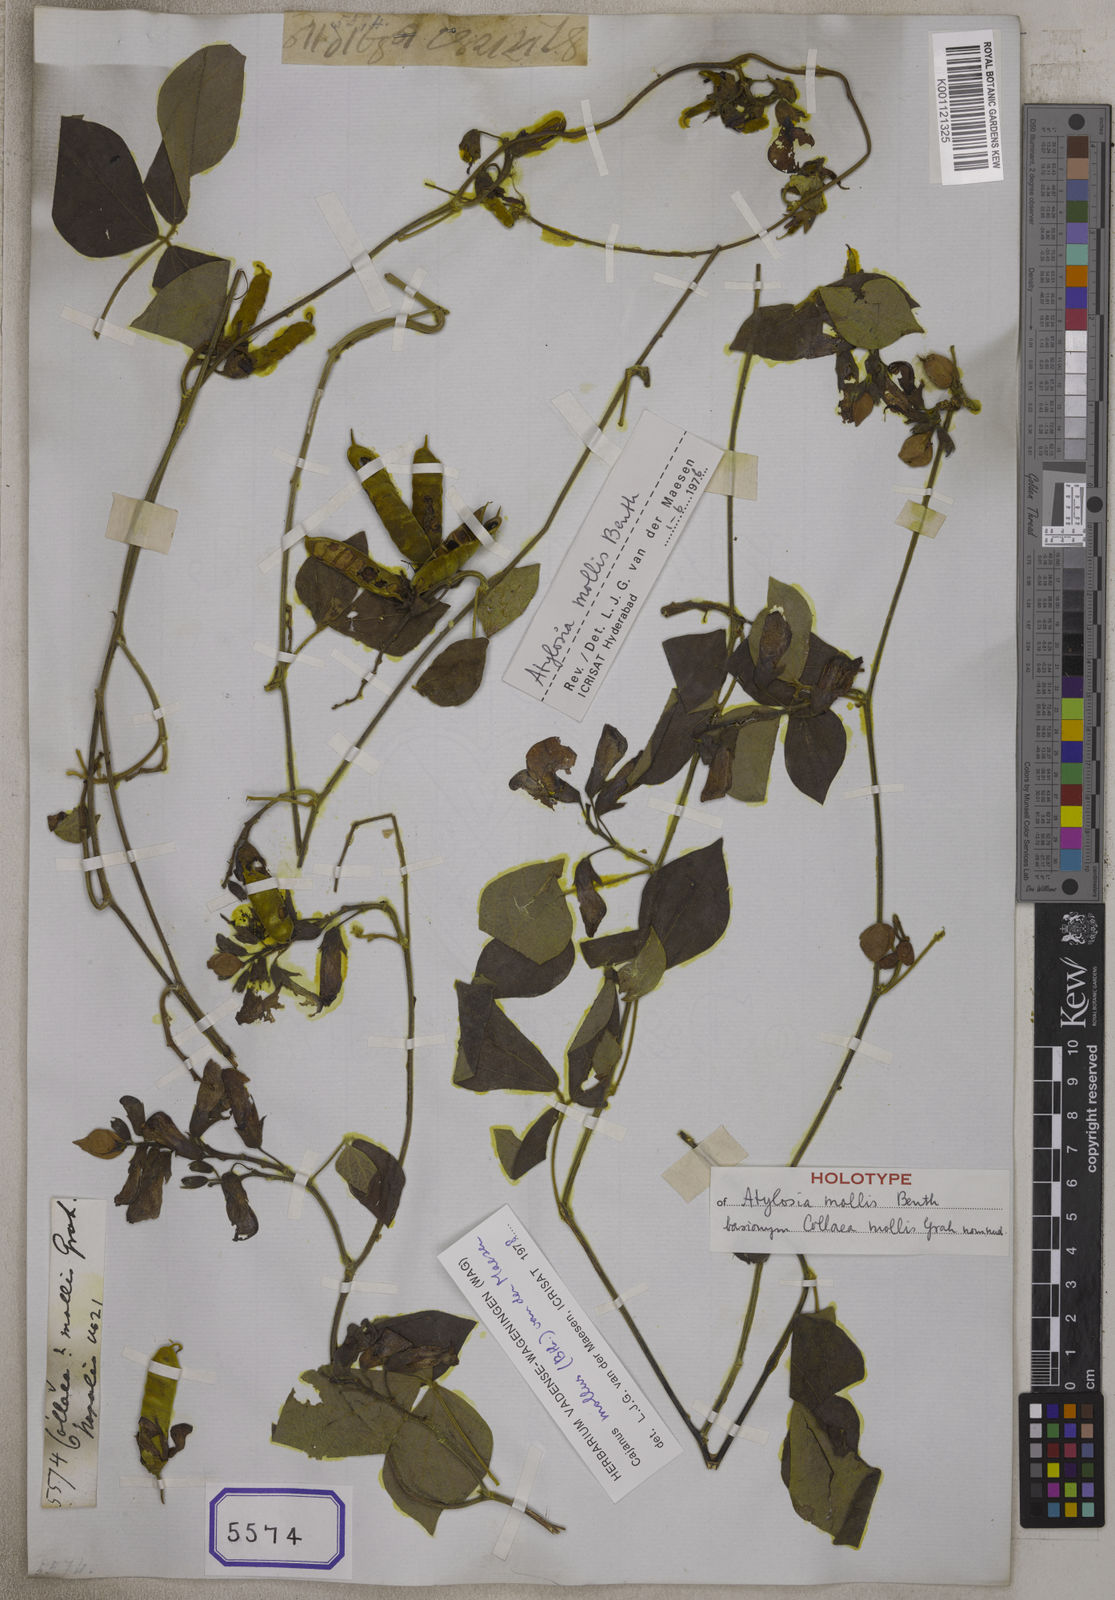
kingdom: Plantae
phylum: Tracheophyta
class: Magnoliopsida
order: Fabales
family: Fabaceae
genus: Cajanus
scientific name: Cajanus mollis
